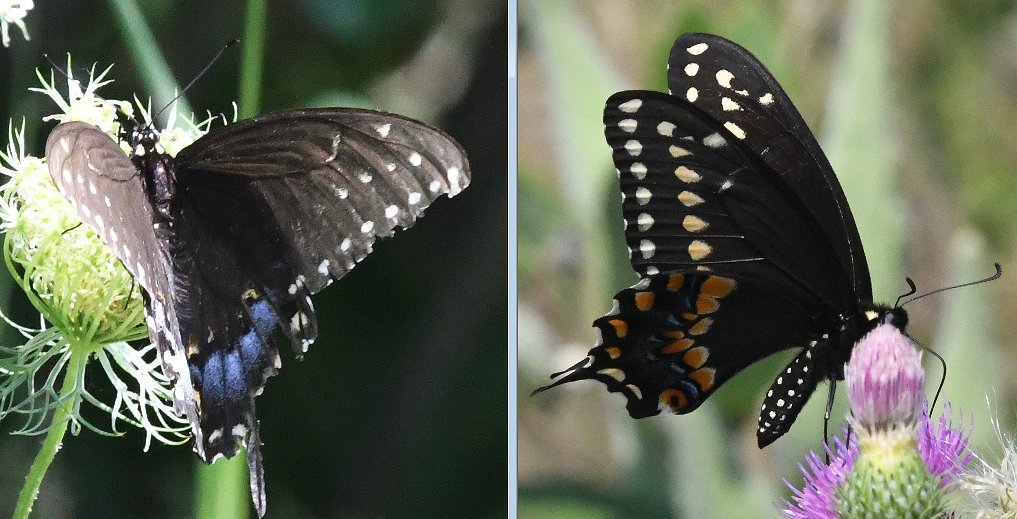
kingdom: Animalia
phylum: Arthropoda
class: Insecta
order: Lepidoptera
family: Papilionidae
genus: Papilio
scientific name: Papilio polyxenes
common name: Black Swallowtail
